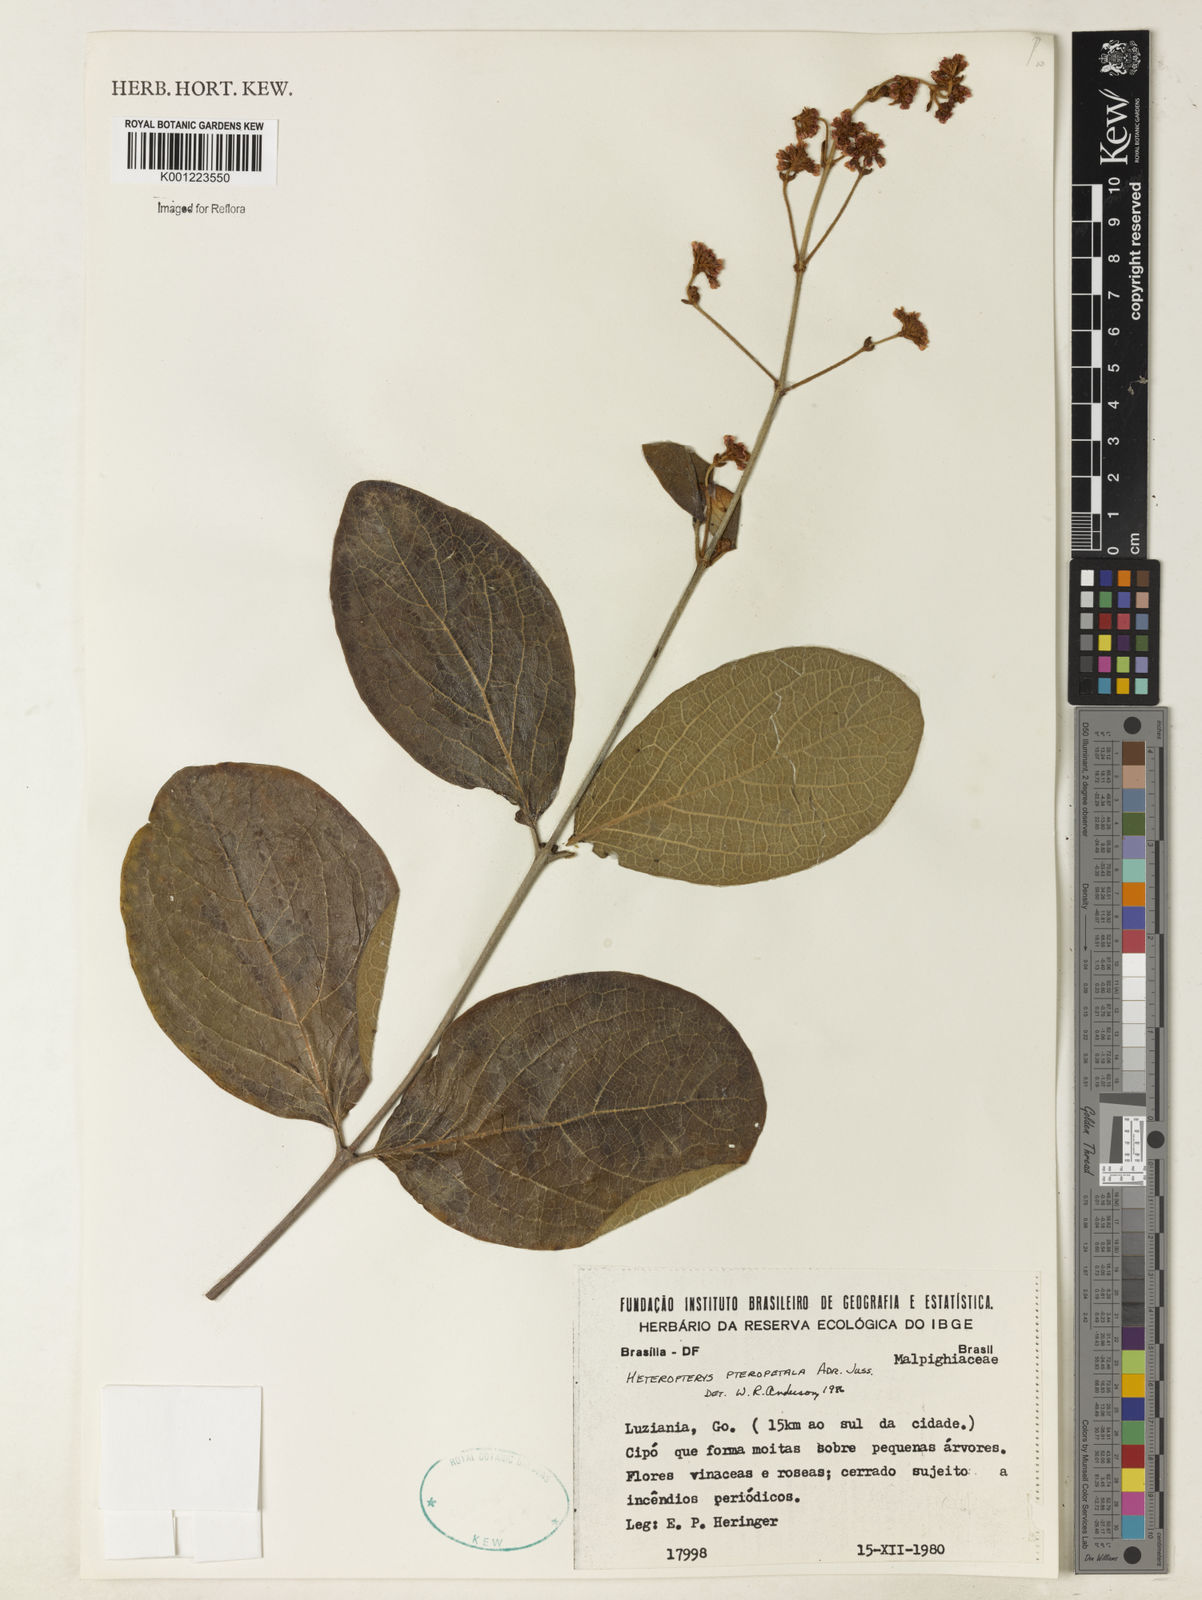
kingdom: Plantae
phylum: Tracheophyta
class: Magnoliopsida
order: Malpighiales
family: Malpighiaceae
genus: Heteropterys
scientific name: Heteropterys pteropetala
